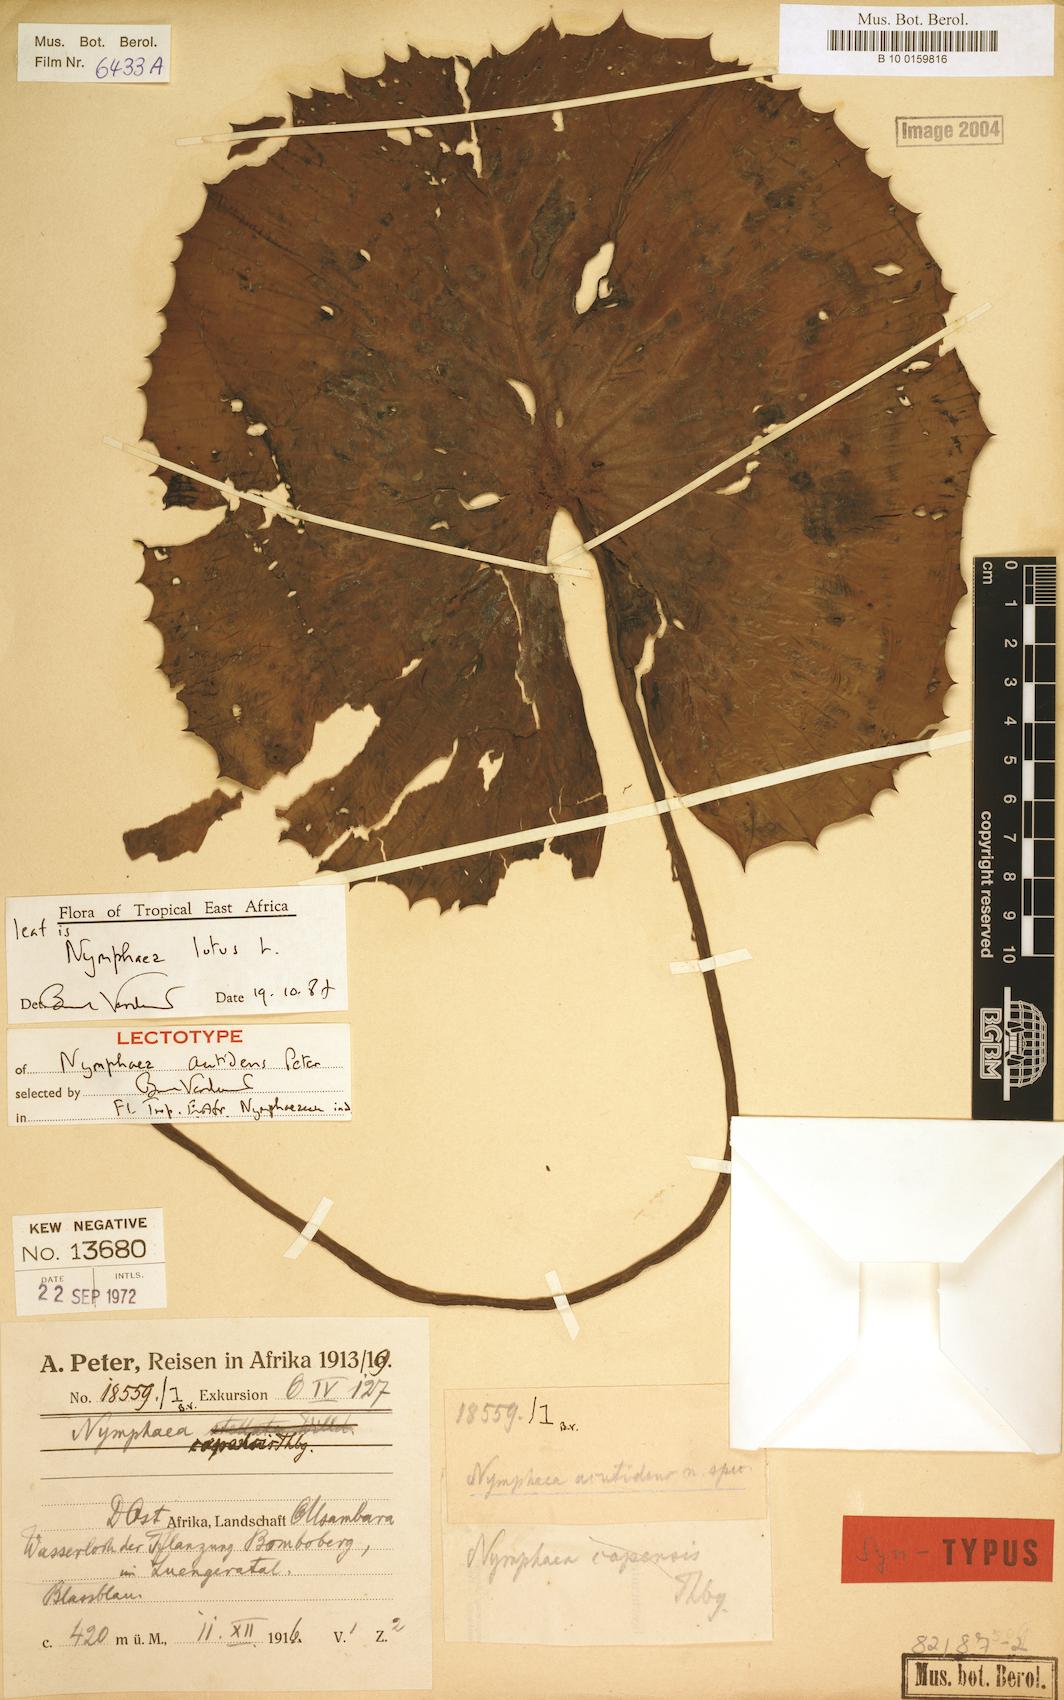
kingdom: Plantae
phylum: Tracheophyta
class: Magnoliopsida
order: Nymphaeales
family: Nymphaeaceae
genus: Nymphaea
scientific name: Nymphaea lotus
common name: White egyptian lotus
